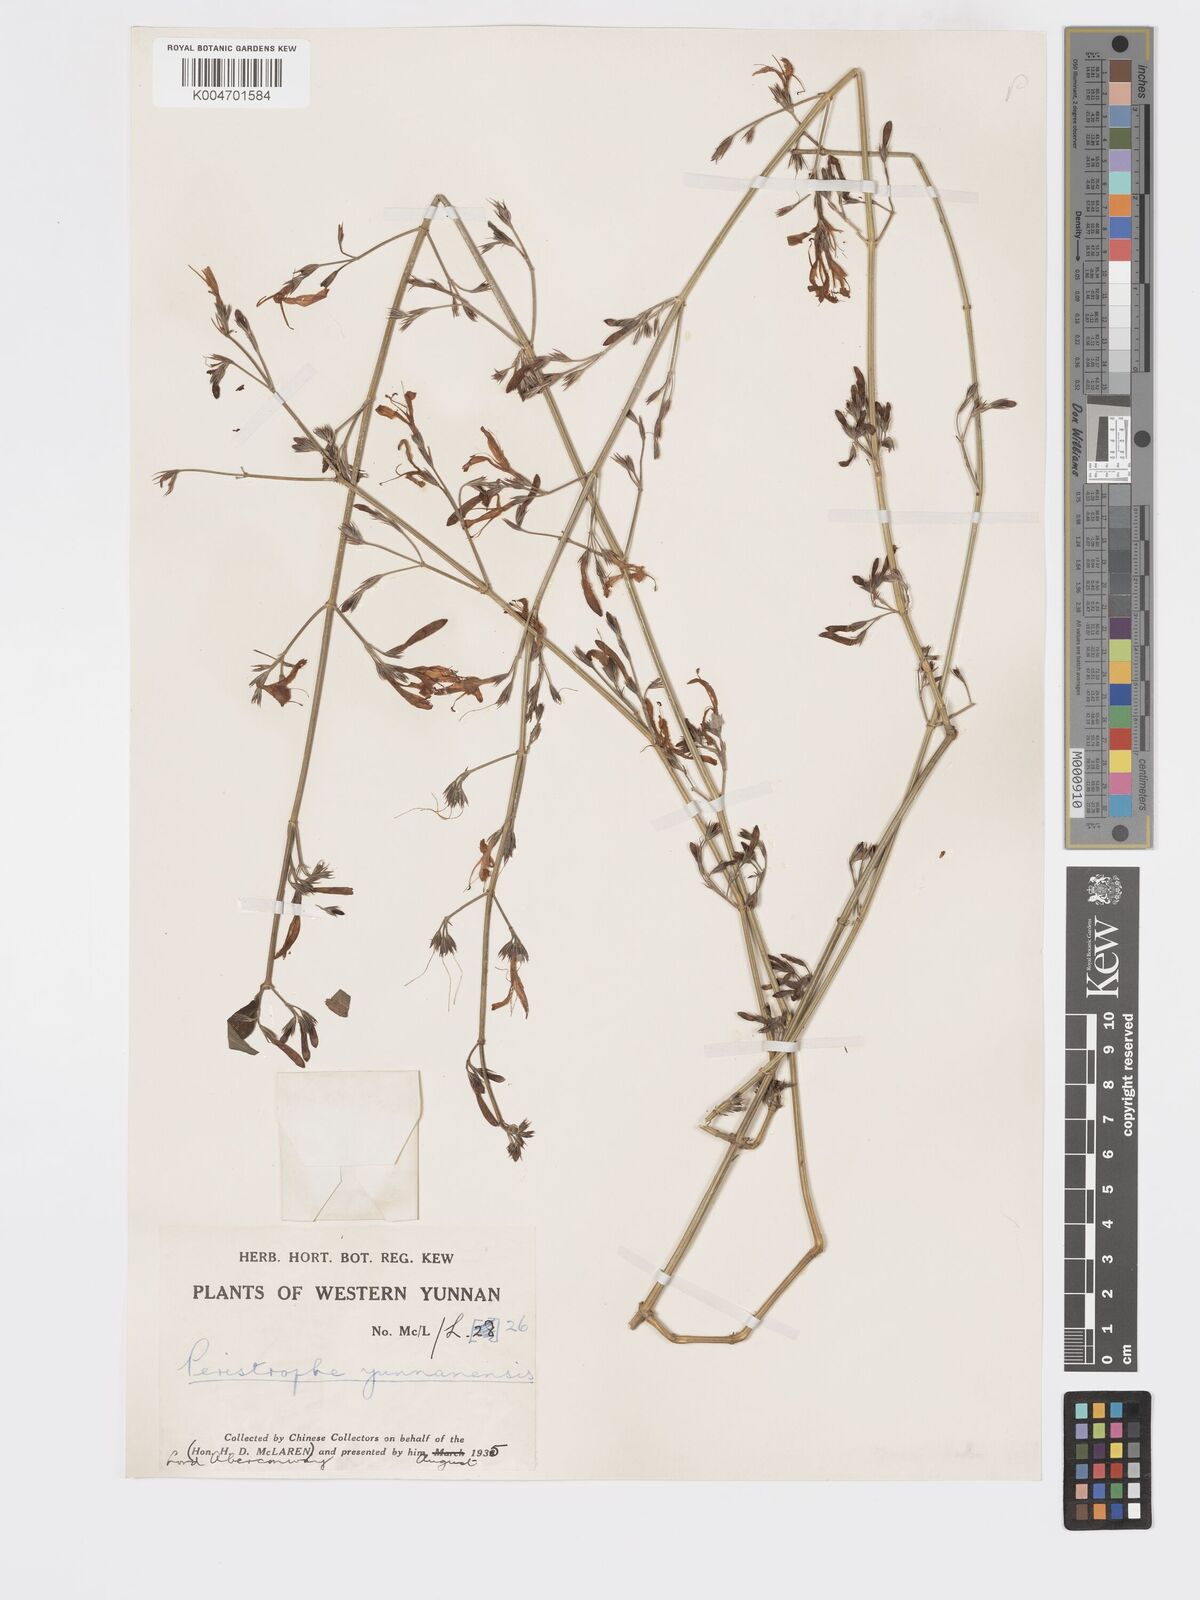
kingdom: Plantae
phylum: Tracheophyta
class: Magnoliopsida
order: Lamiales
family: Acanthaceae
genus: Dicliptera
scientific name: Dicliptera
